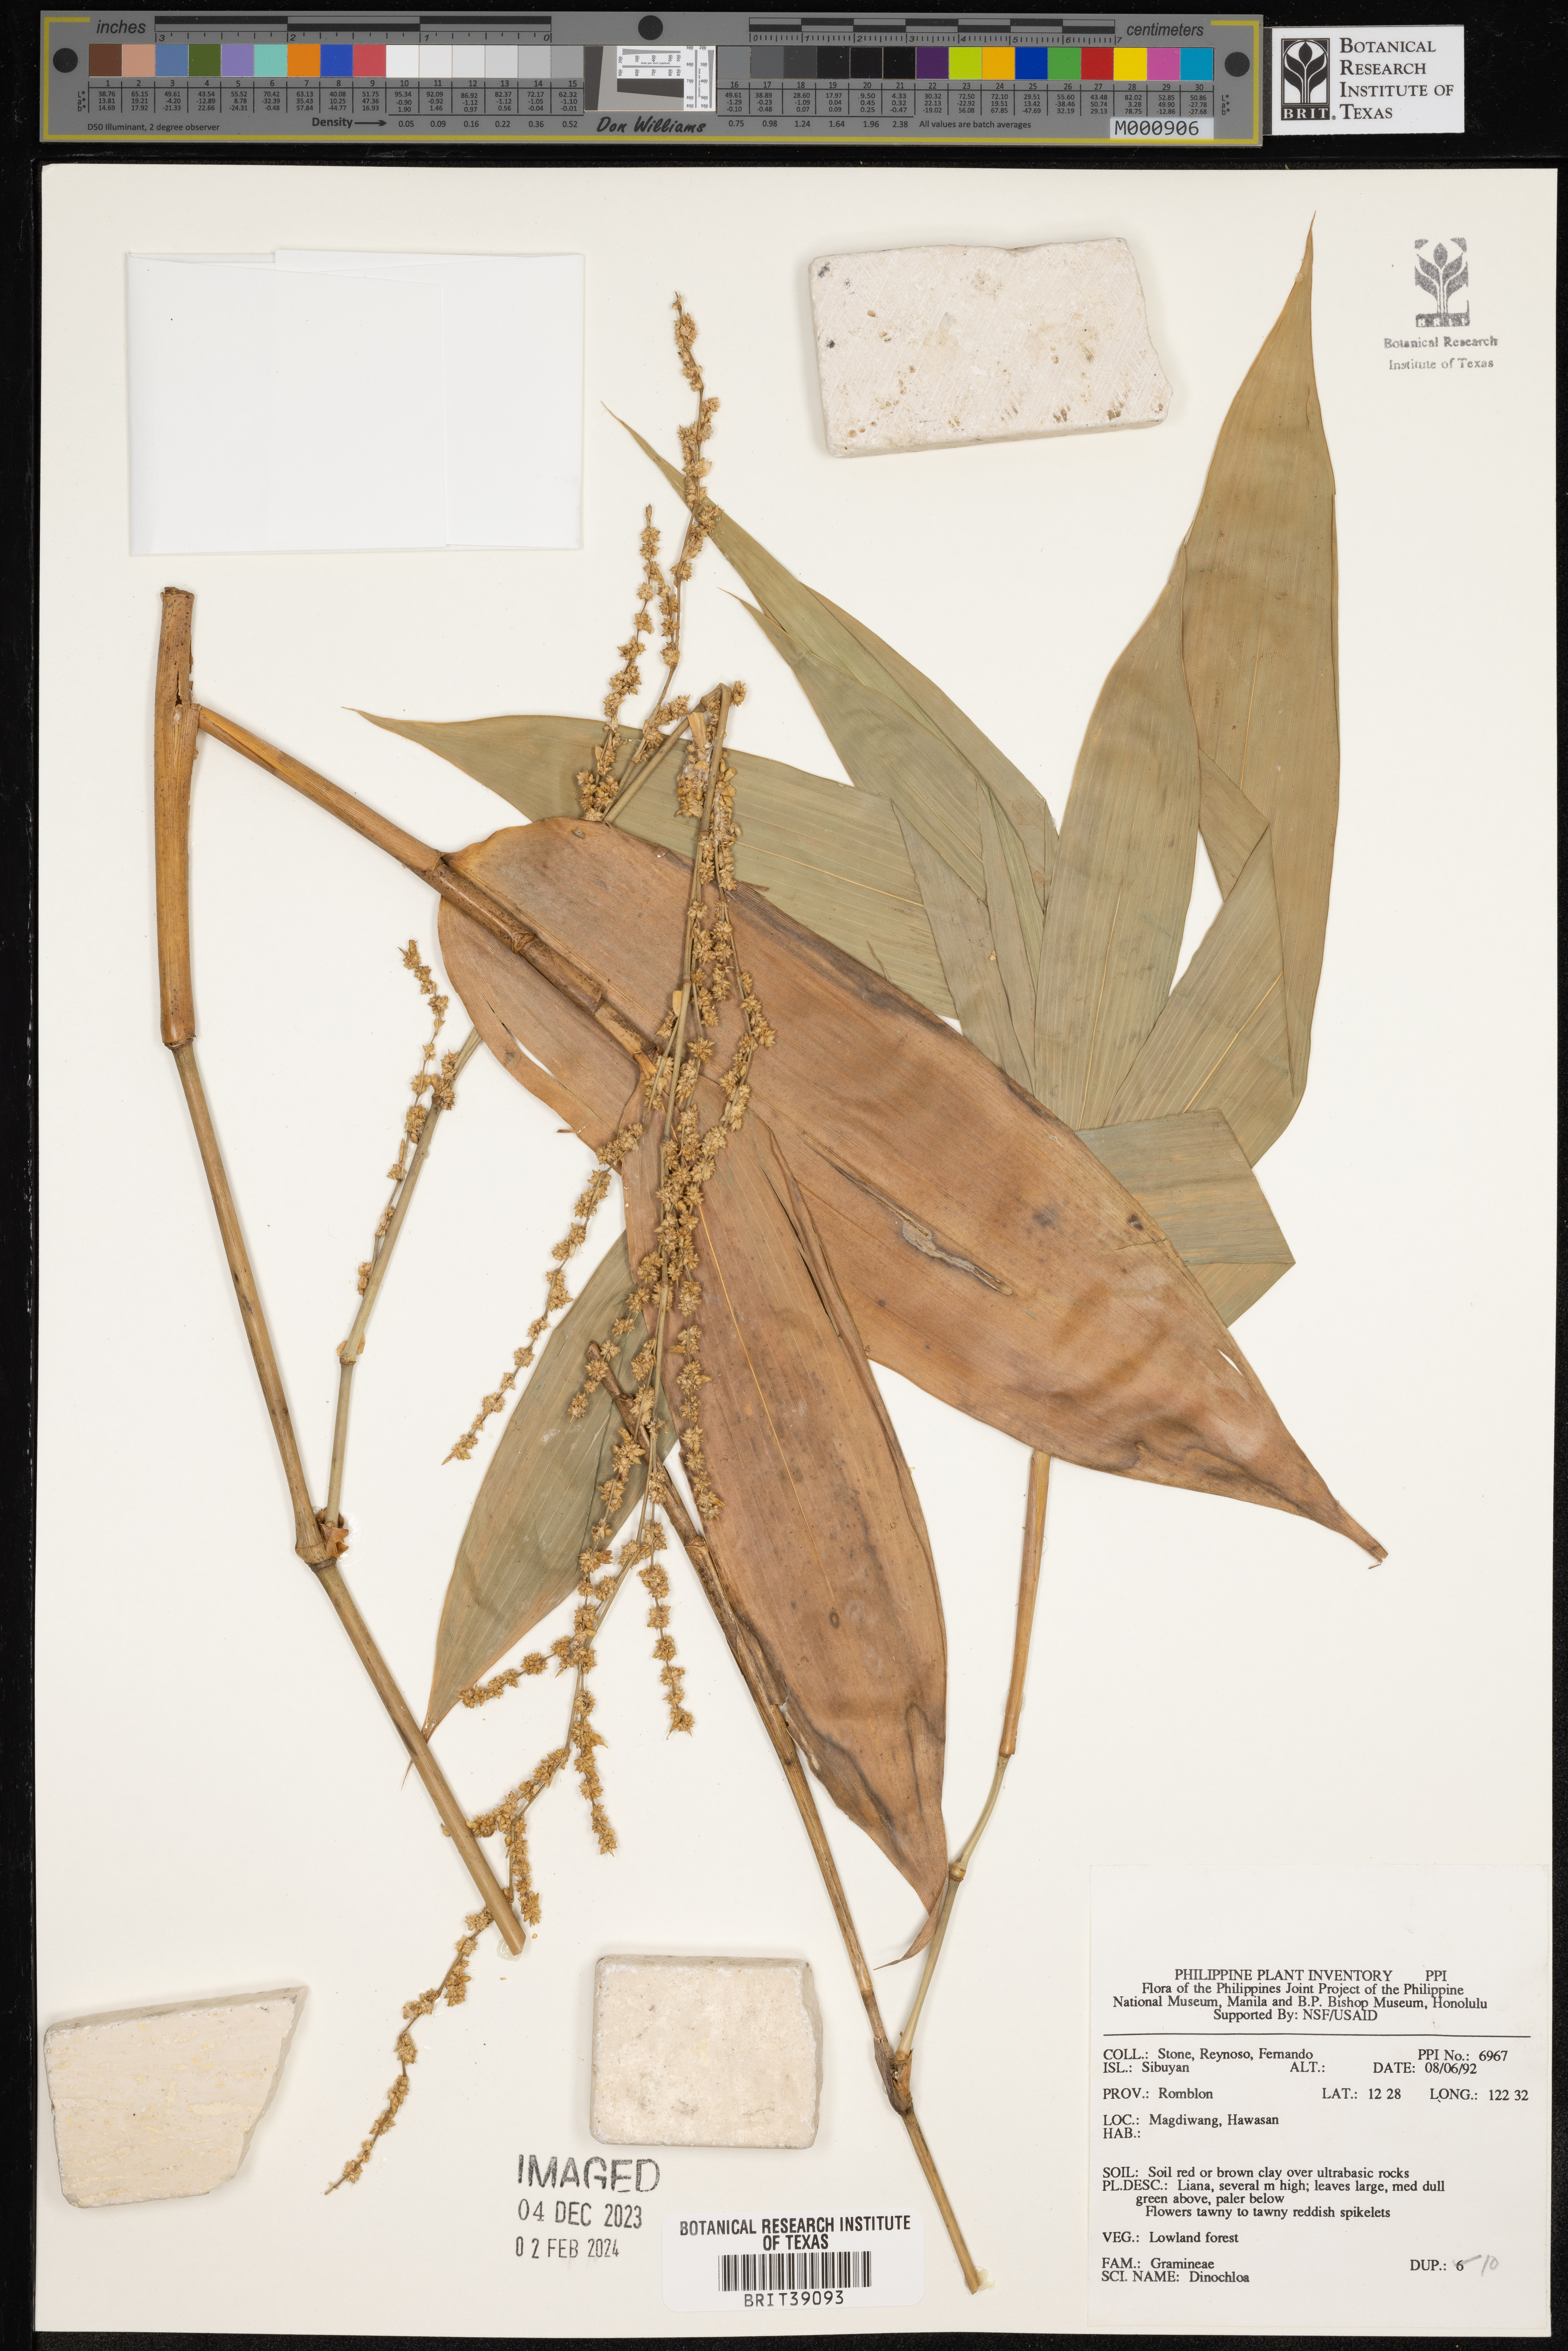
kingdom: Plantae
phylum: Tracheophyta
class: Liliopsida
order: Poales
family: Poaceae
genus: Dinochloa
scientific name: Dinochloa
